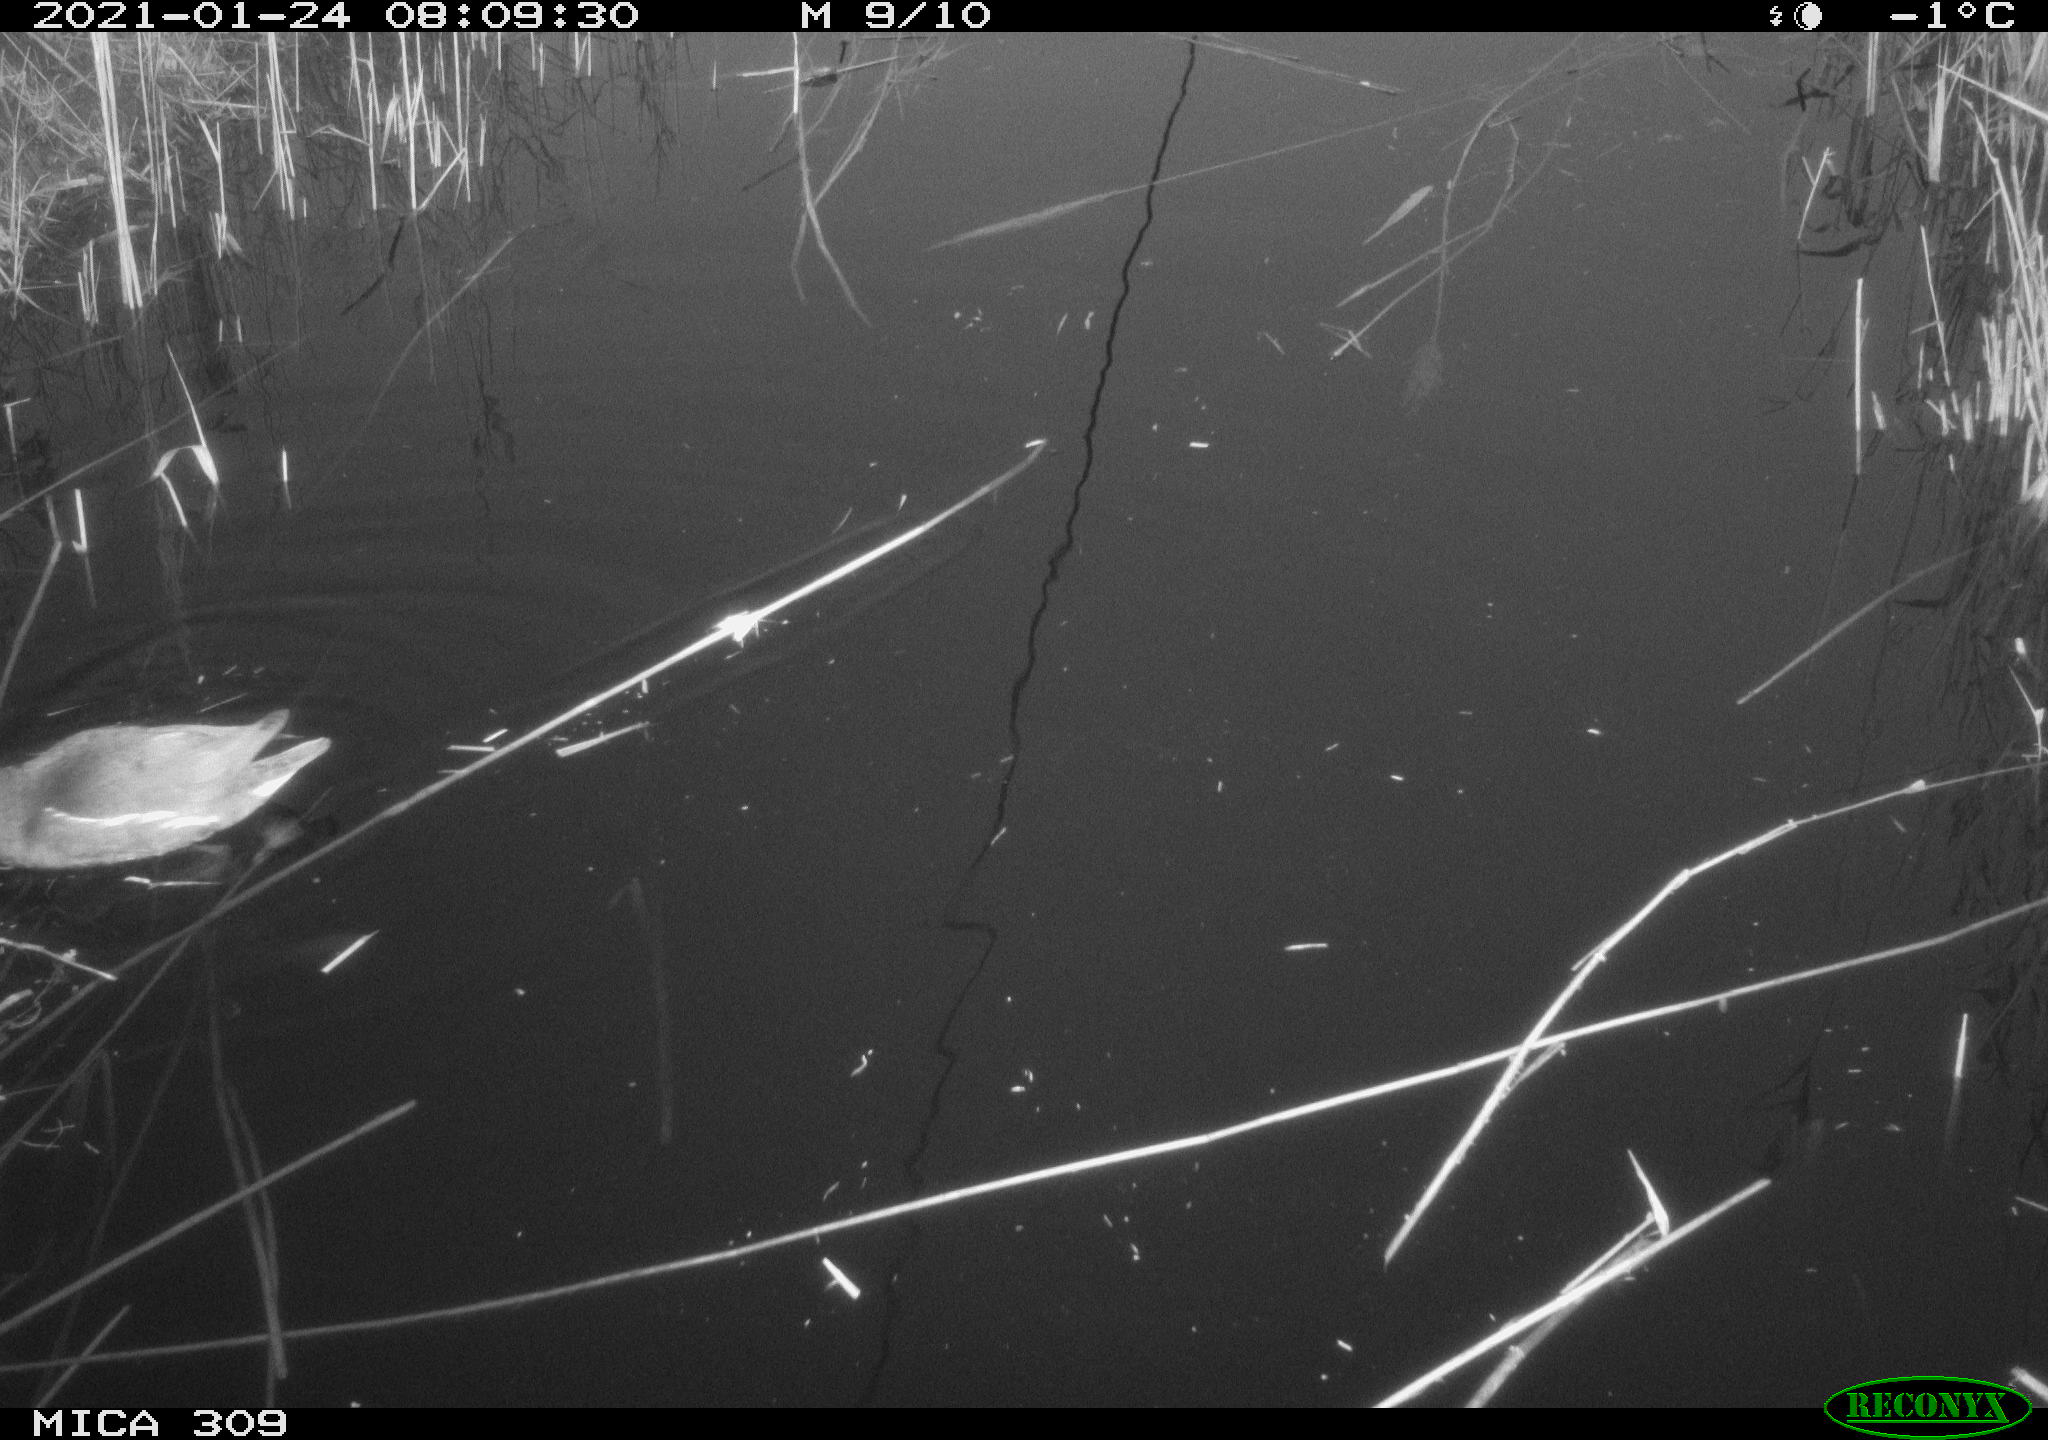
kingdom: Animalia
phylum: Chordata
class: Aves
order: Gruiformes
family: Rallidae
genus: Gallinula
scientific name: Gallinula chloropus
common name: Common moorhen
